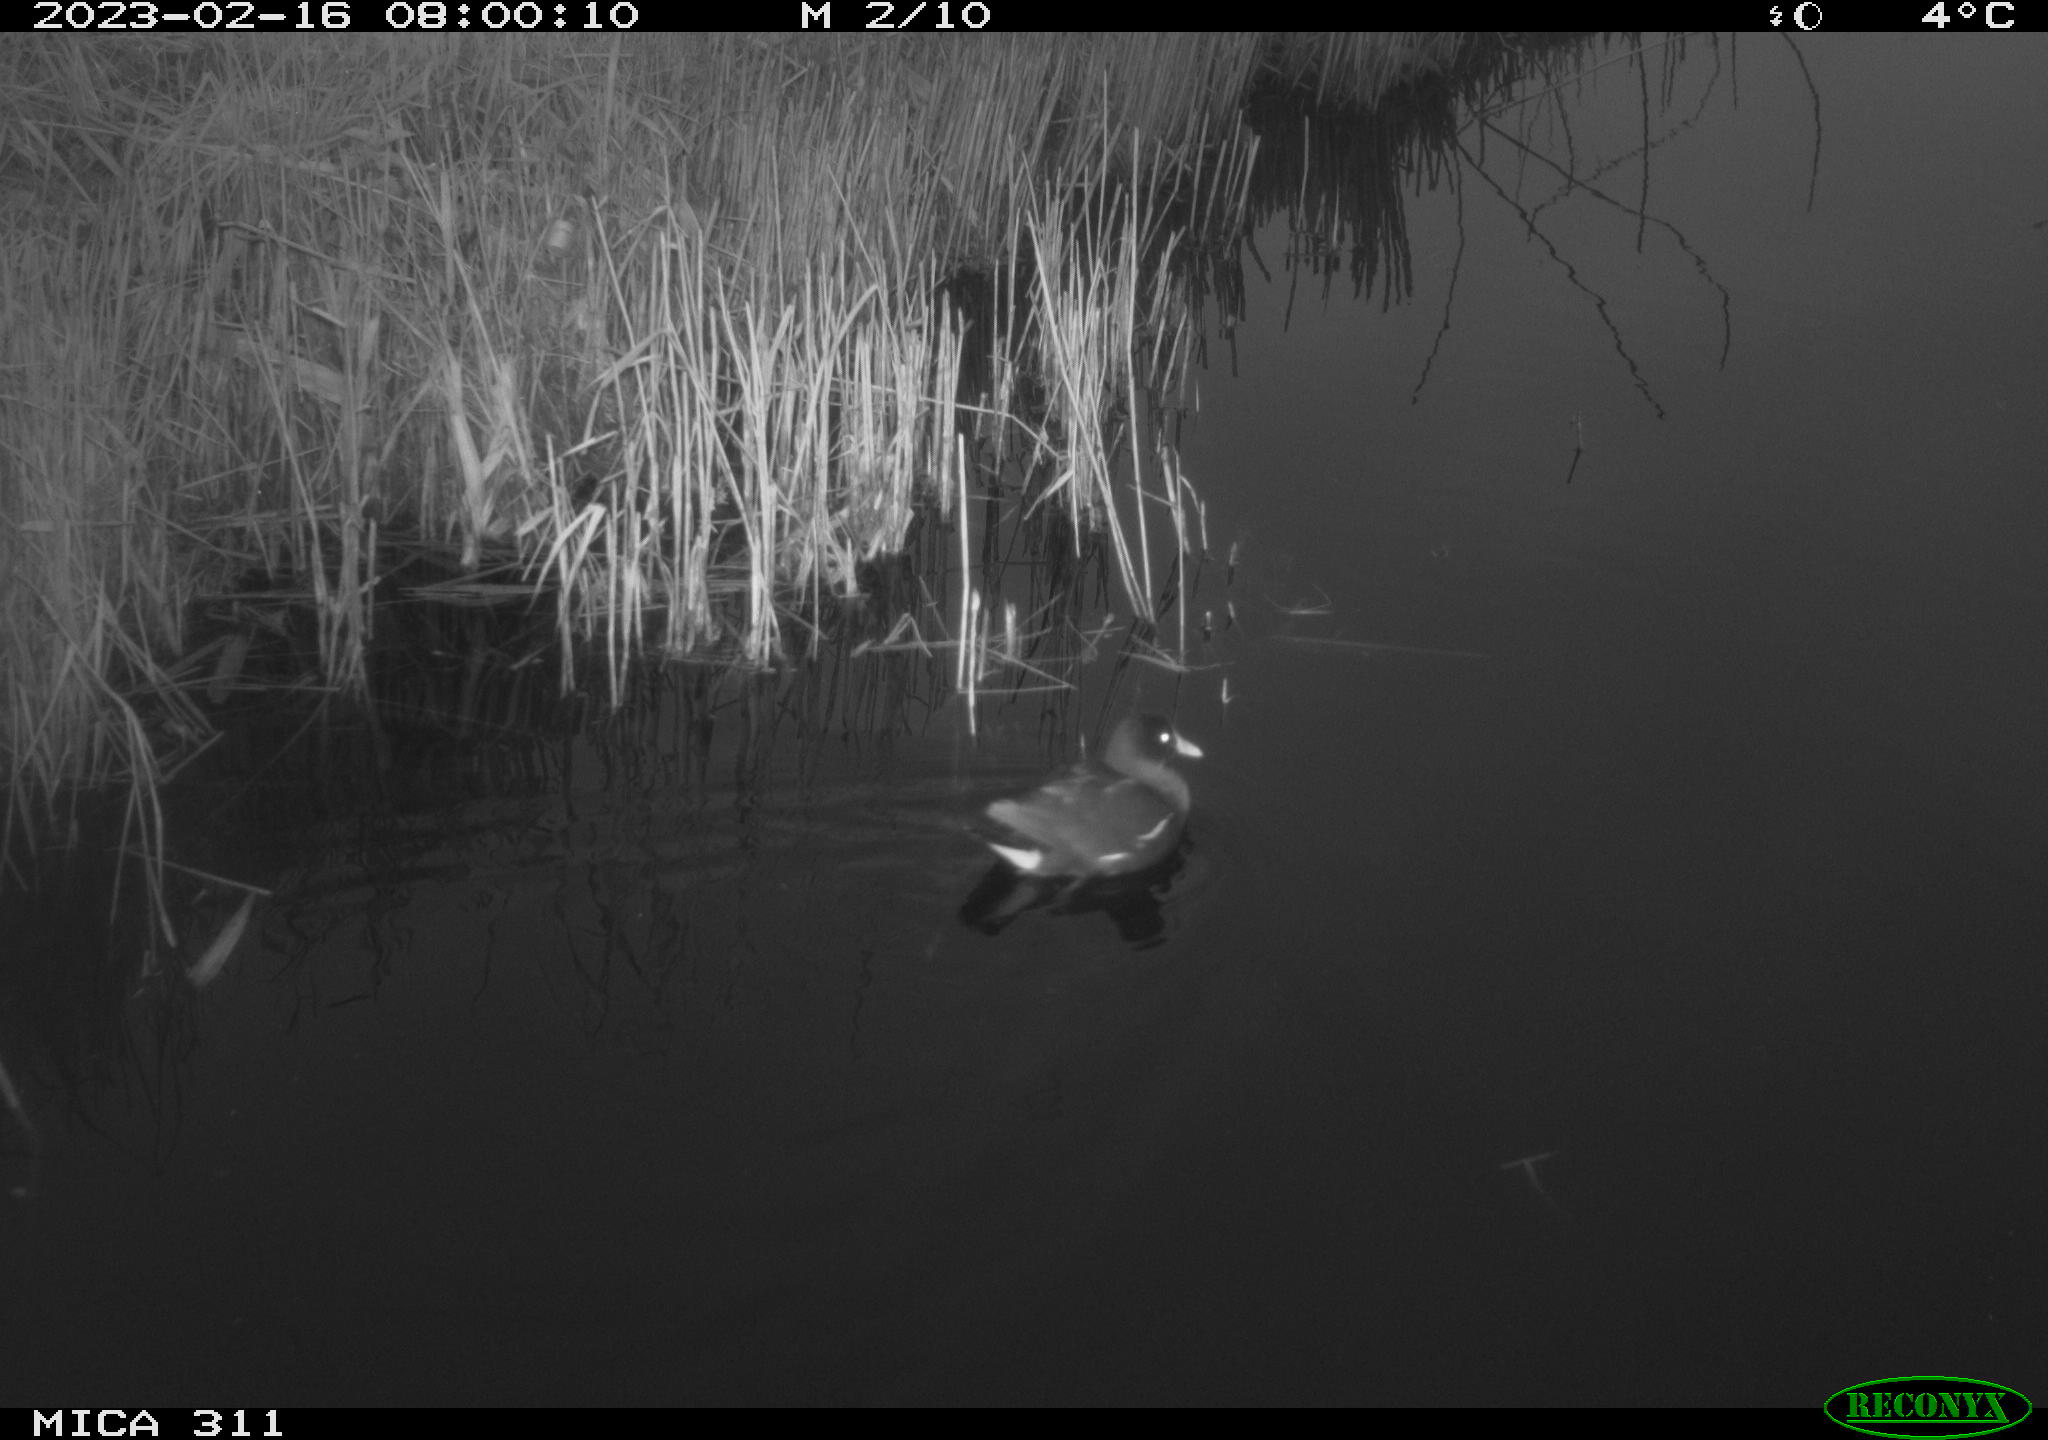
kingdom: Animalia
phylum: Chordata
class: Aves
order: Gruiformes
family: Rallidae
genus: Gallinula
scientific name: Gallinula chloropus
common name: Common moorhen
